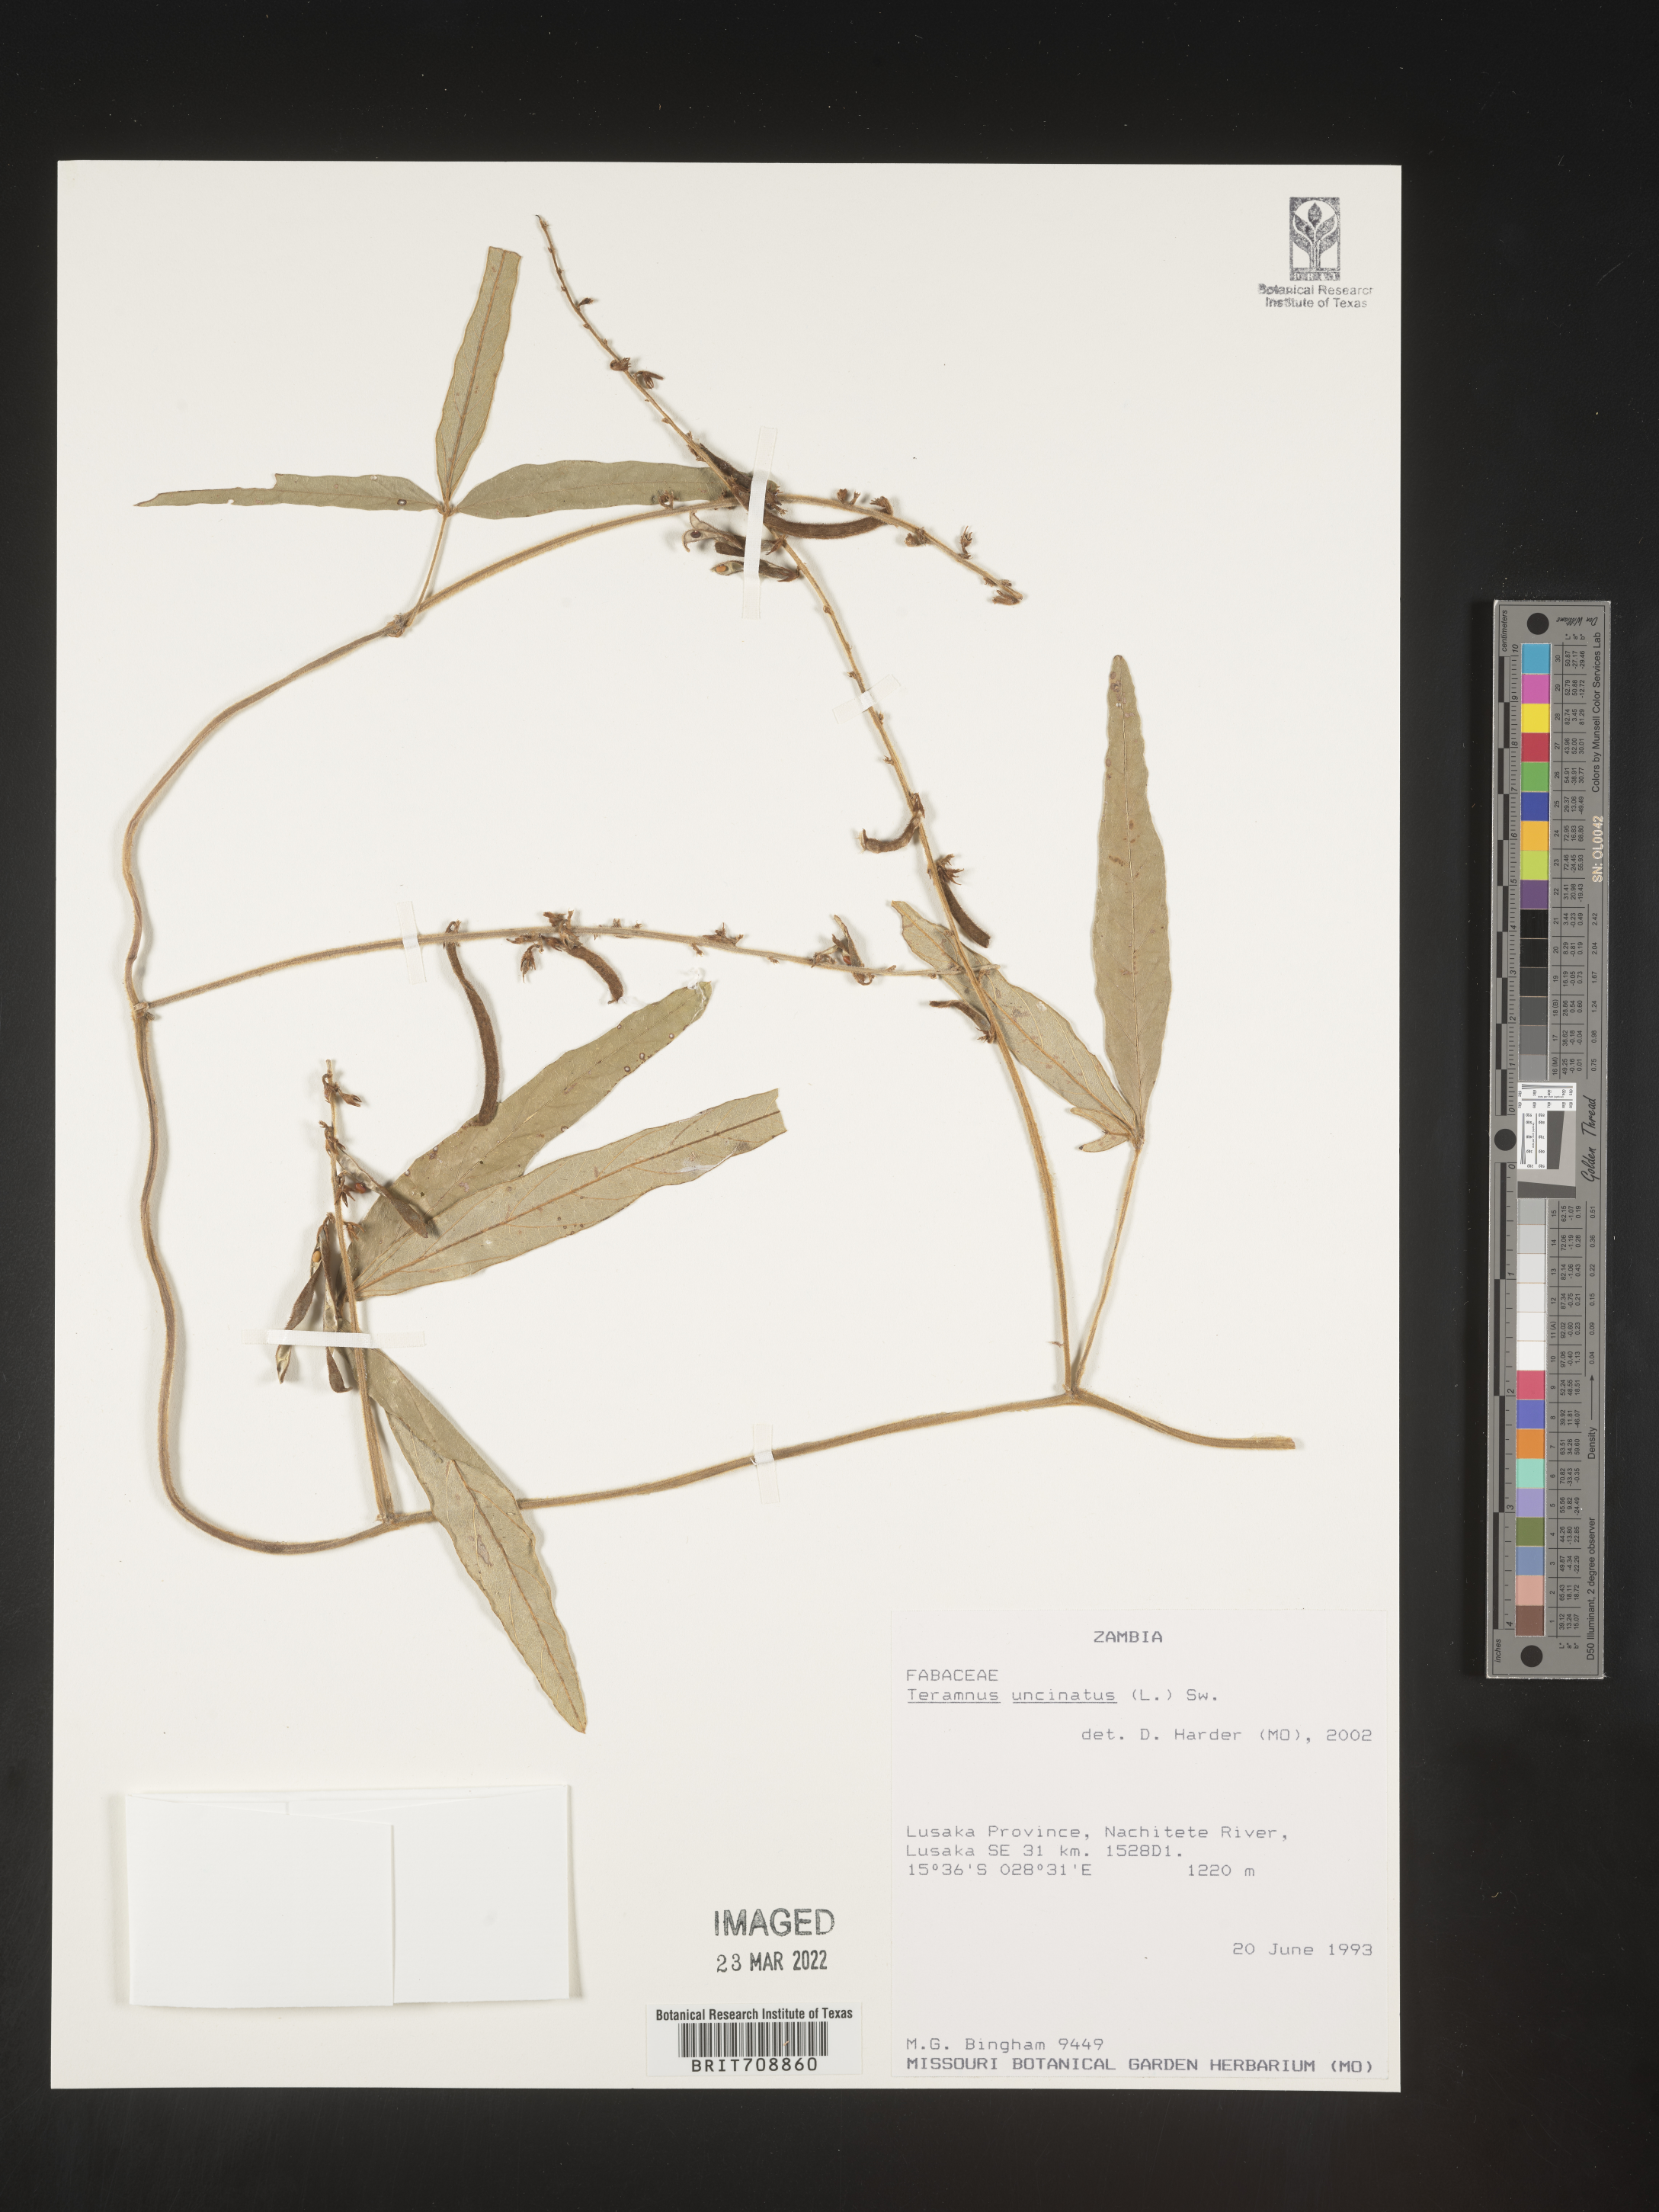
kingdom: Plantae
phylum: Tracheophyta
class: Magnoliopsida
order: Fabales
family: Fabaceae
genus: Teramnus
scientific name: Teramnus
